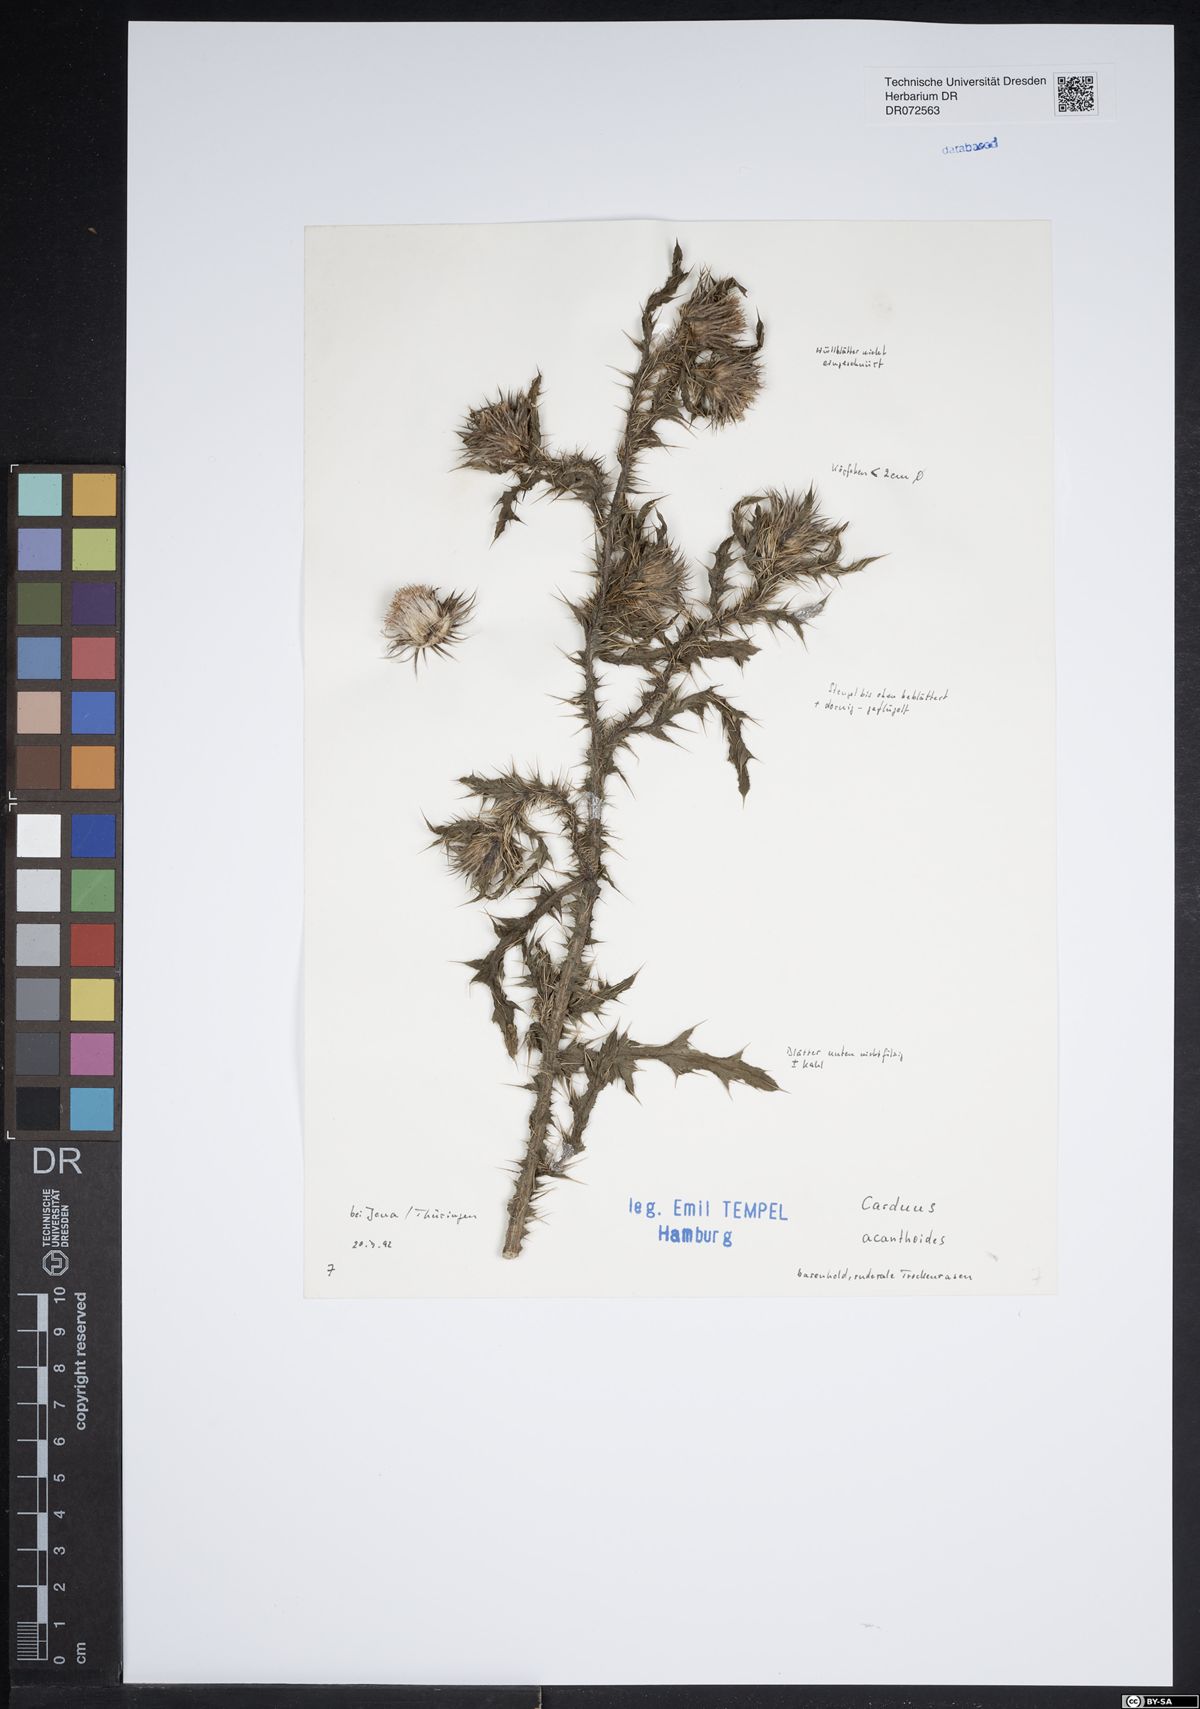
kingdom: Plantae
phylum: Tracheophyta
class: Magnoliopsida
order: Asterales
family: Asteraceae
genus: Carduus
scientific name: Carduus acanthoides
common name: Plumeless thistle
